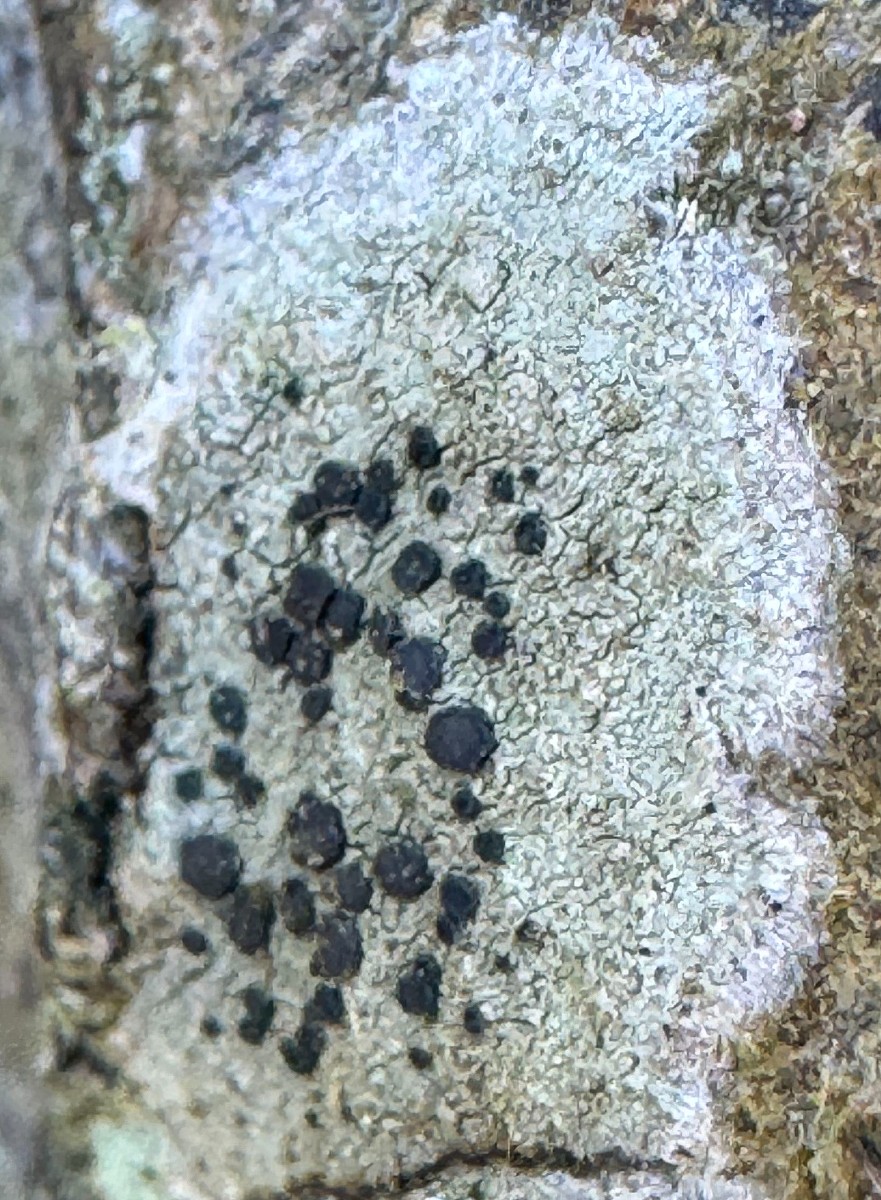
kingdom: Fungi
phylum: Ascomycota
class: Lecanoromycetes
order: Lecanorales
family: Lecanoraceae
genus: Lecidella
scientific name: Lecidella elaeochroma
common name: grågrøn skivelav
